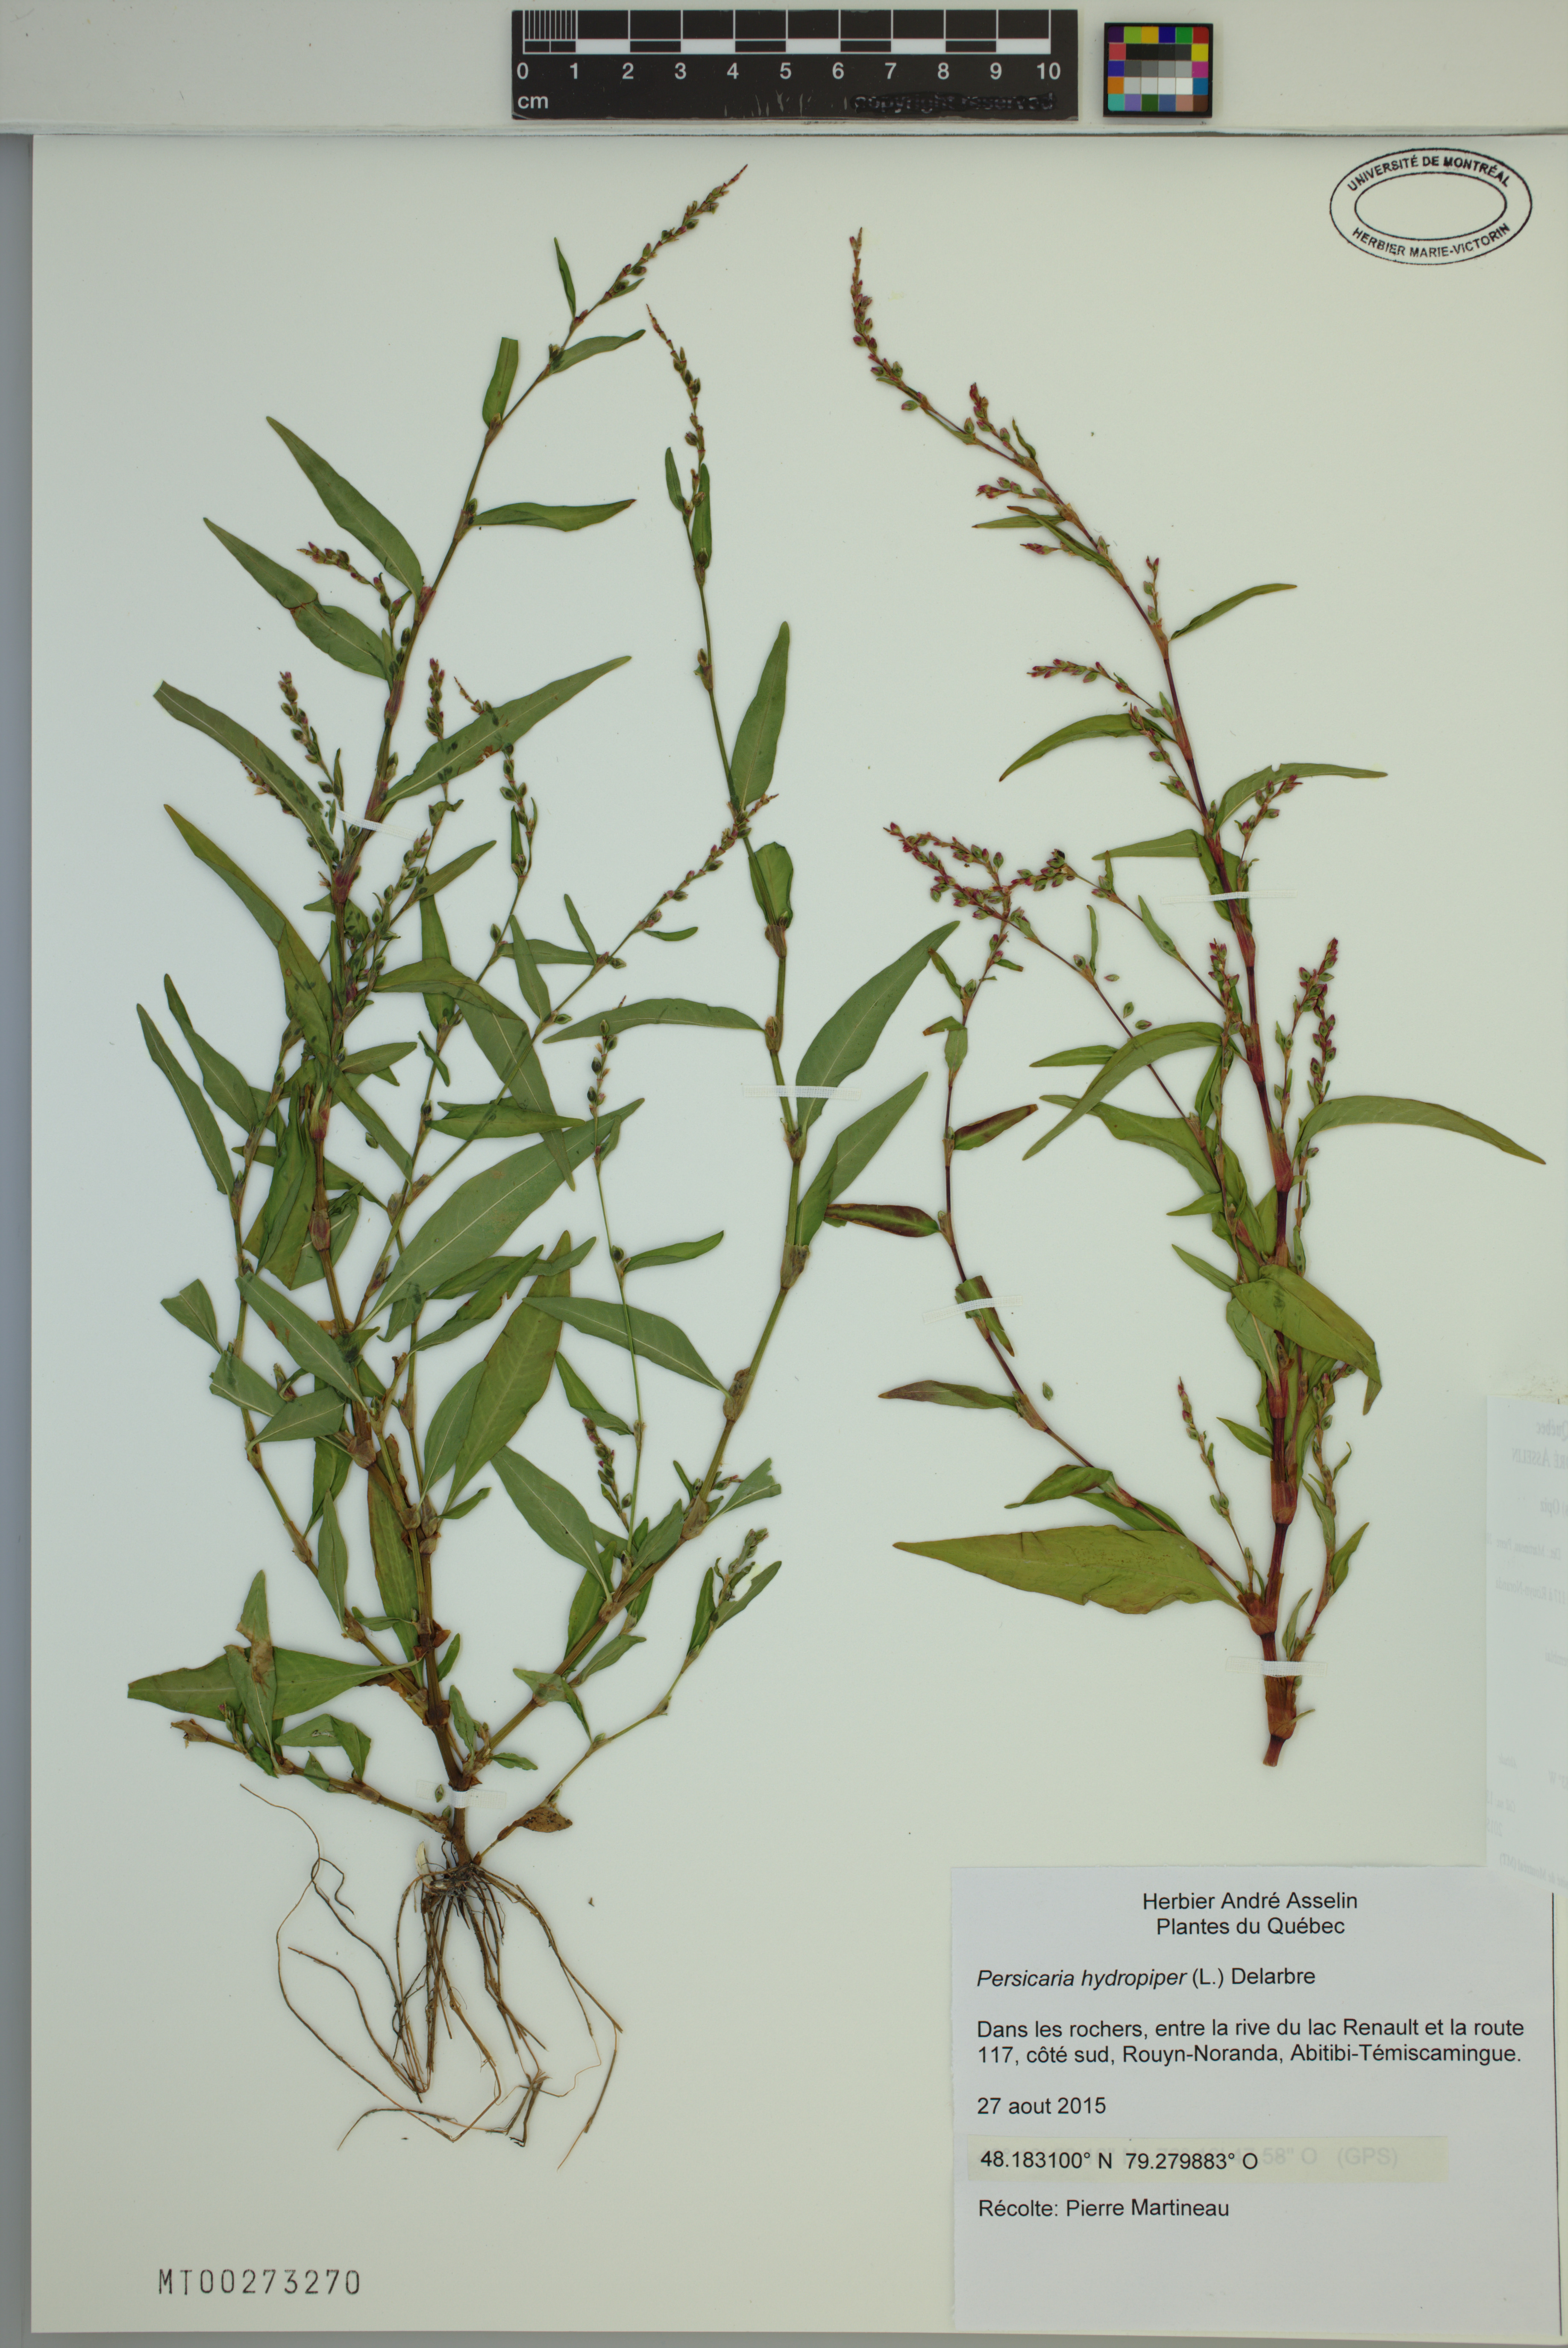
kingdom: Plantae
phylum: Tracheophyta
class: Magnoliopsida
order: Caryophyllales
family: Polygonaceae
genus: Persicaria
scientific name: Persicaria hydropiper
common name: Water-pepper
